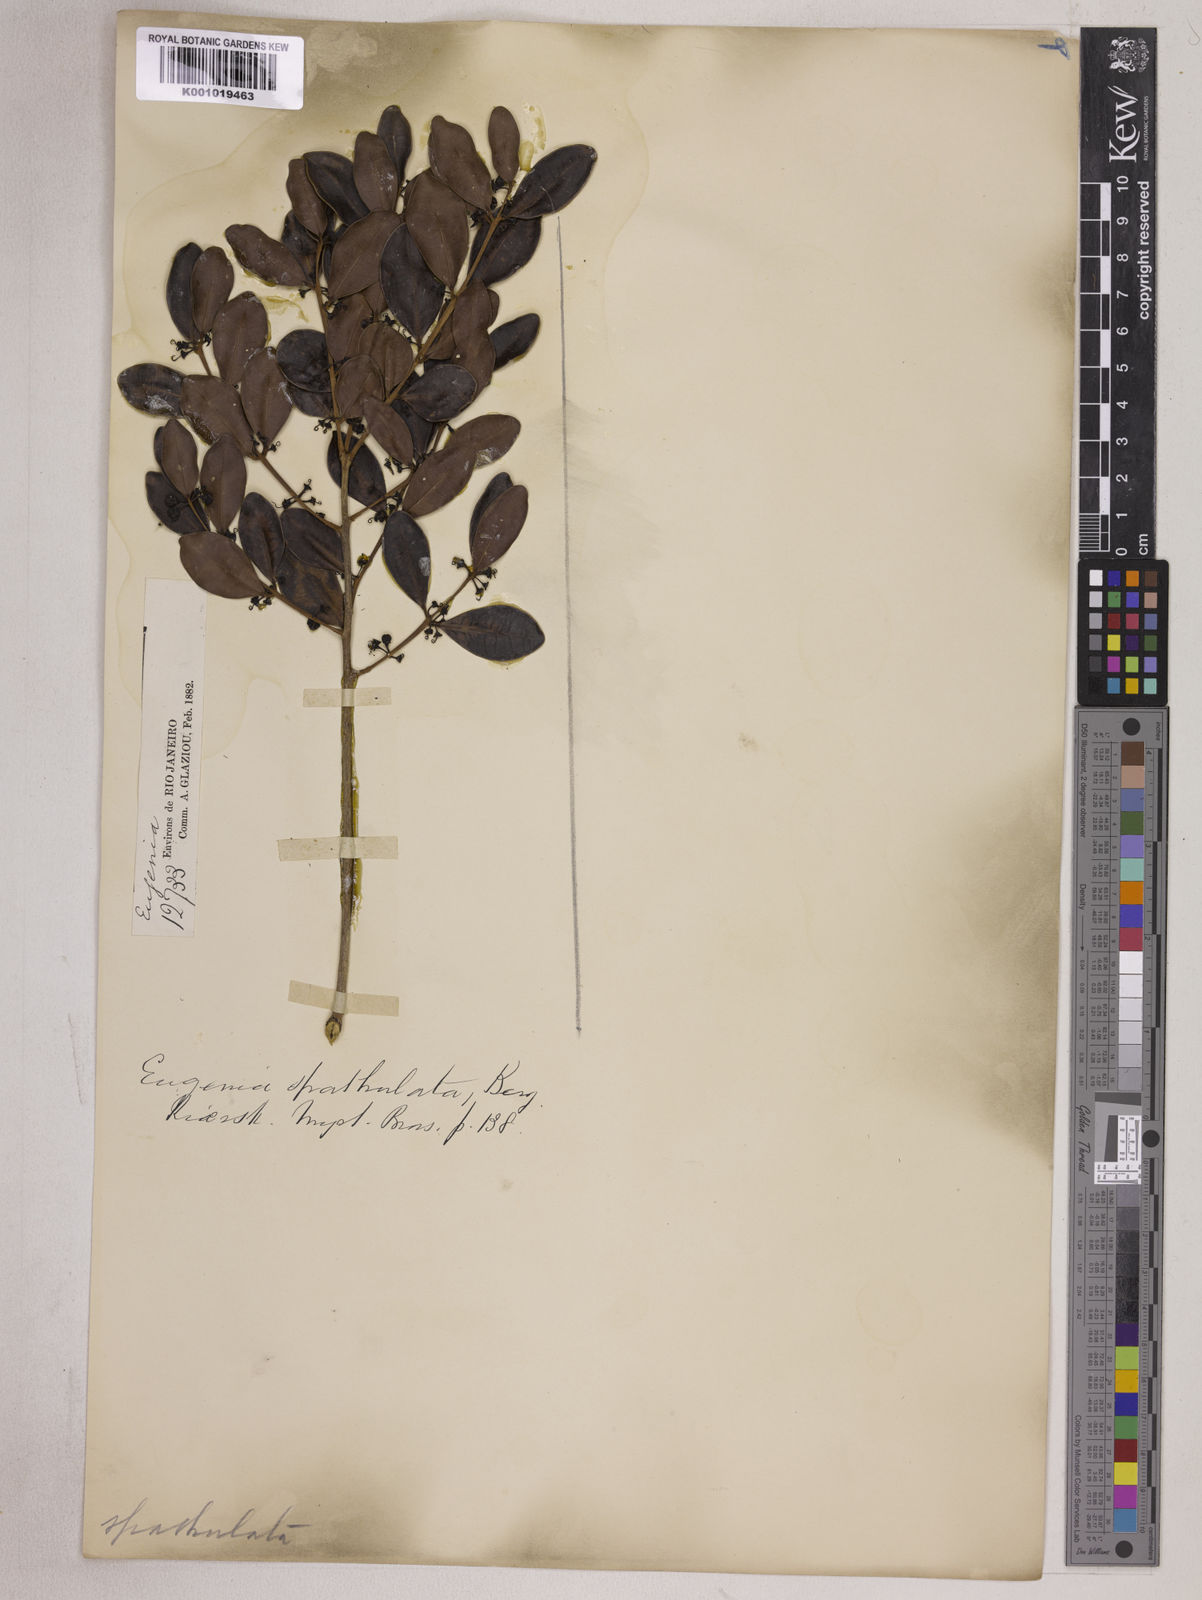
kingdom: Plantae
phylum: Tracheophyta
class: Magnoliopsida
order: Myrtales
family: Myrtaceae
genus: Eugenia
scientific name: Eugenia punicifolia
